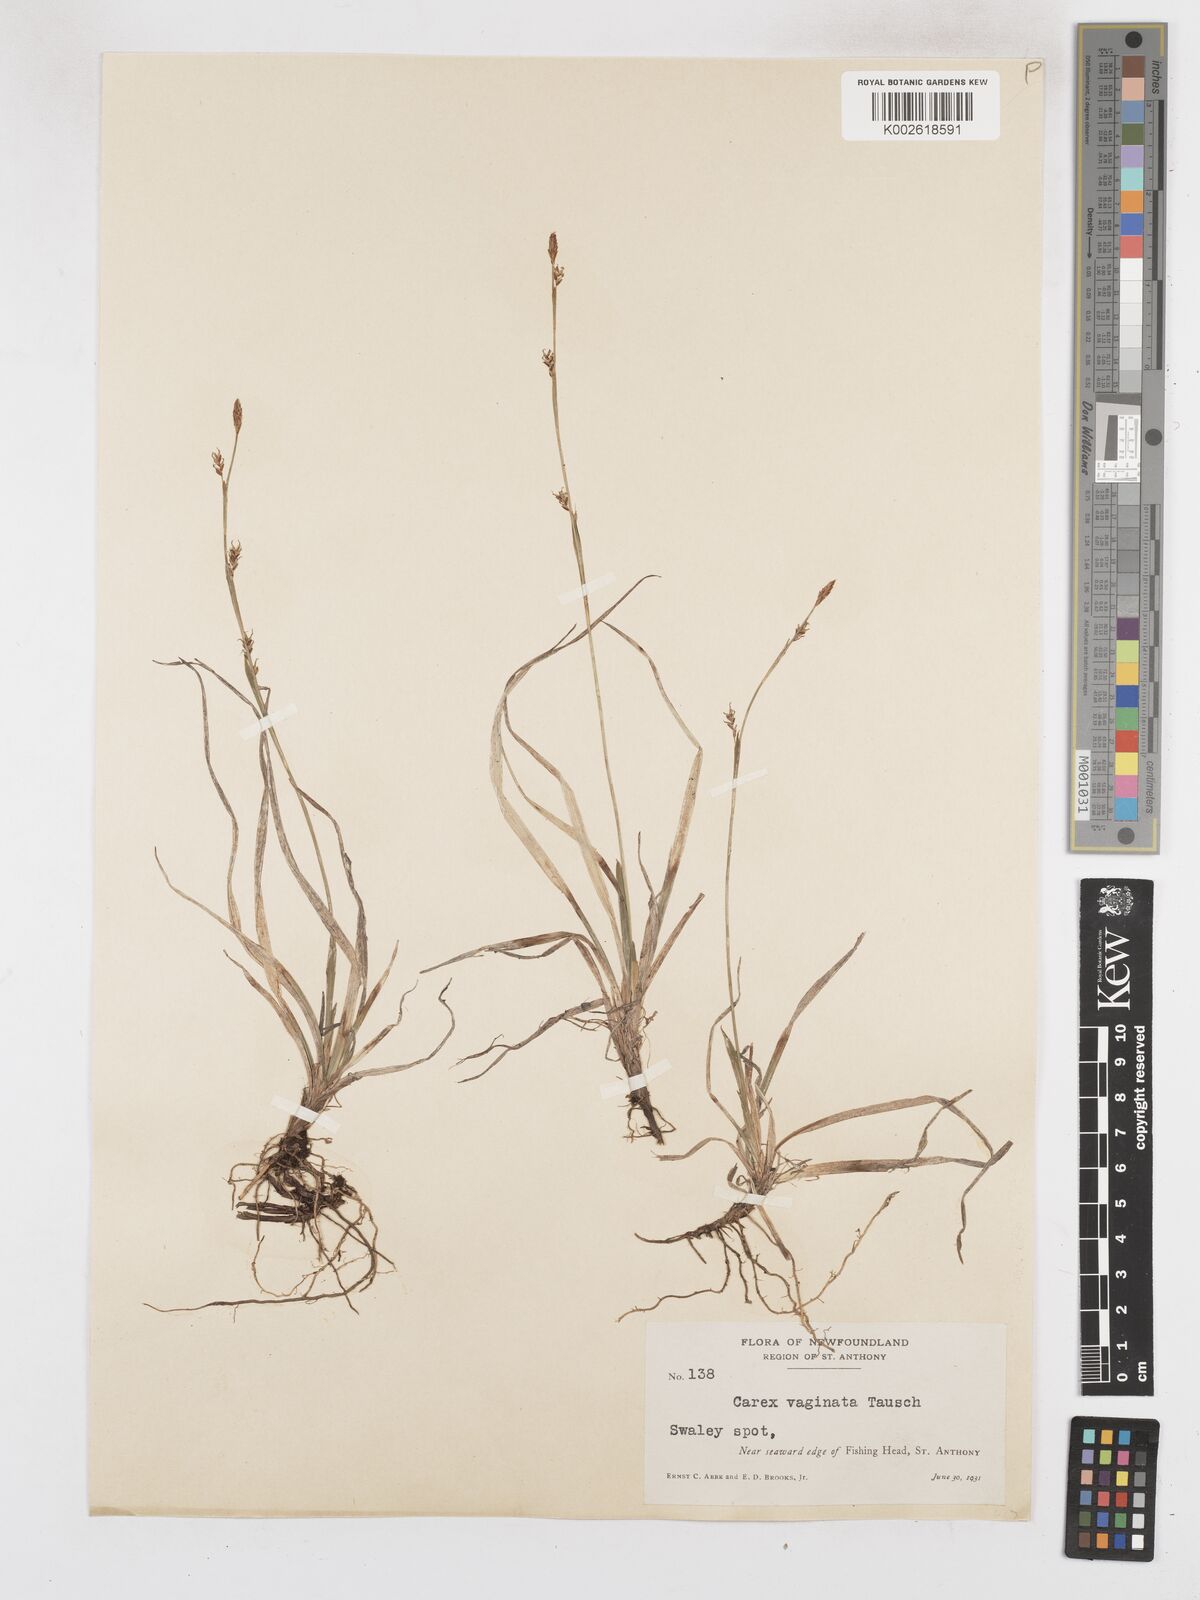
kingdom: Plantae
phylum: Tracheophyta
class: Liliopsida
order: Poales
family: Cyperaceae
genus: Carex
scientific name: Carex vaginata
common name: Sheathed sedge
